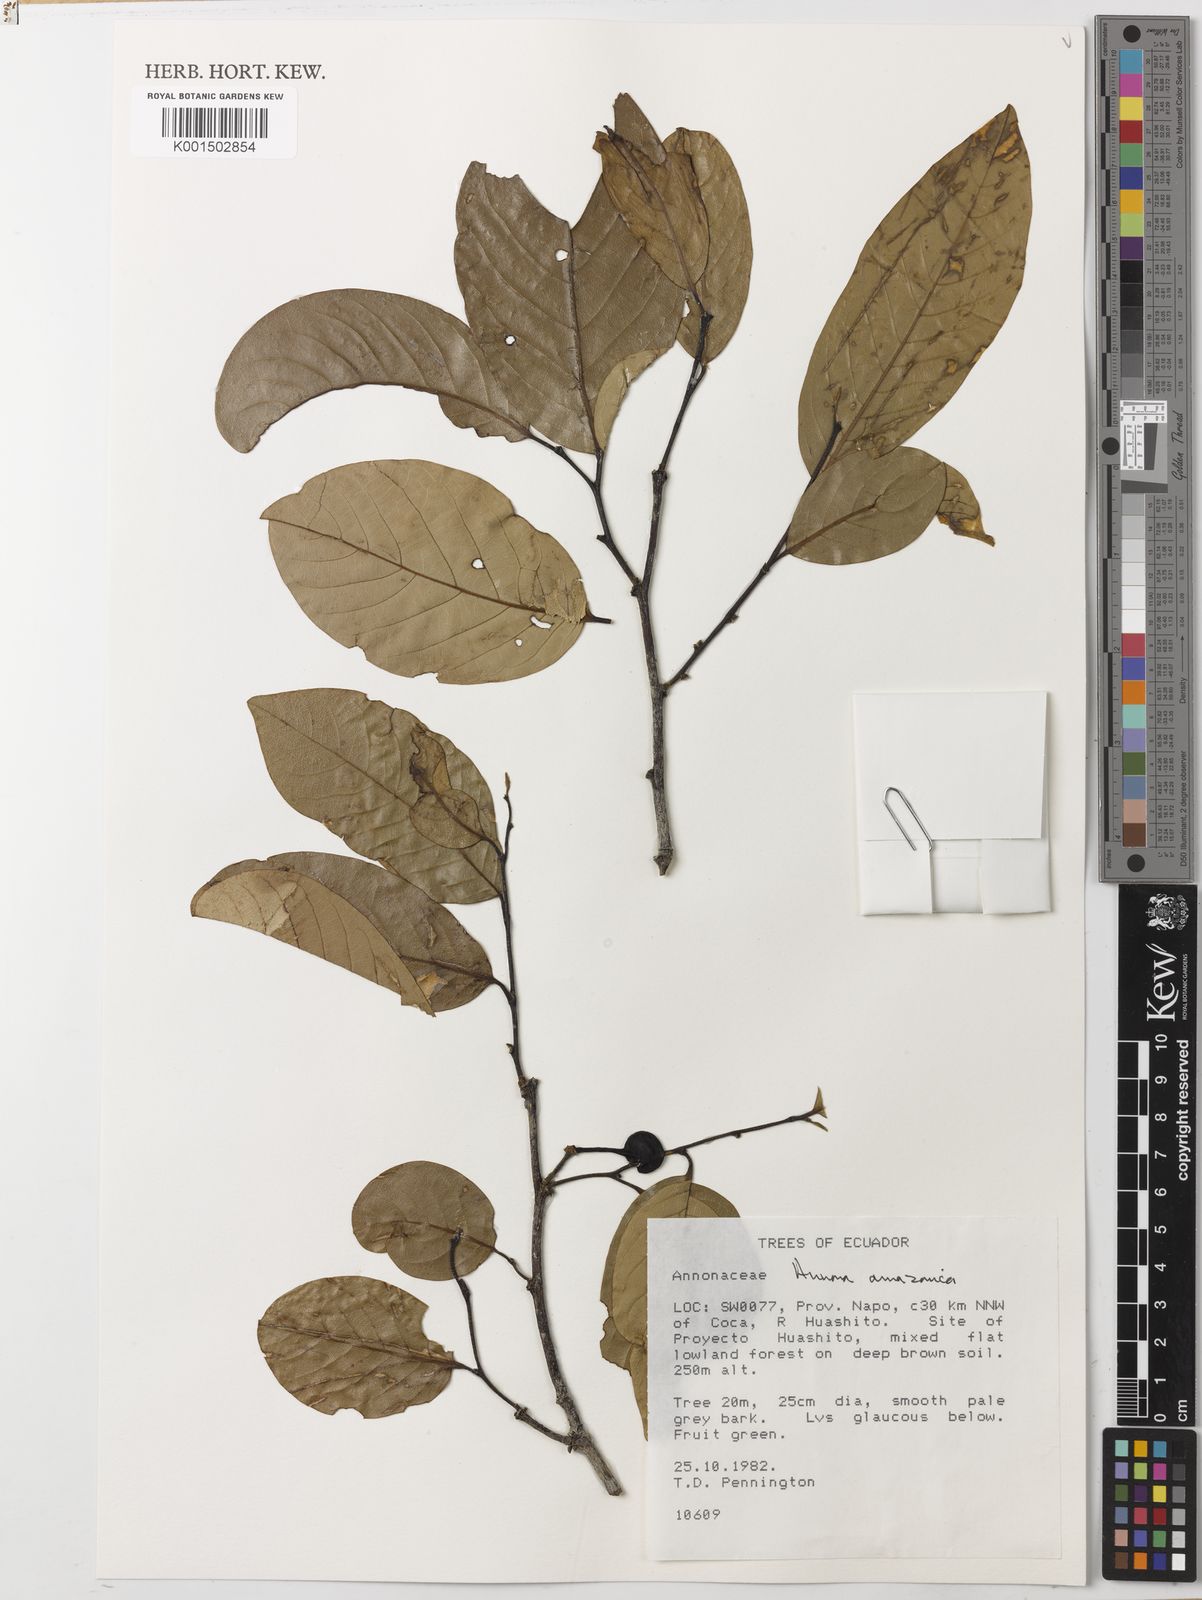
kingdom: Plantae
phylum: Tracheophyta
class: Magnoliopsida
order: Magnoliales
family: Annonaceae
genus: Annona
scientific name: Annona amazonica
